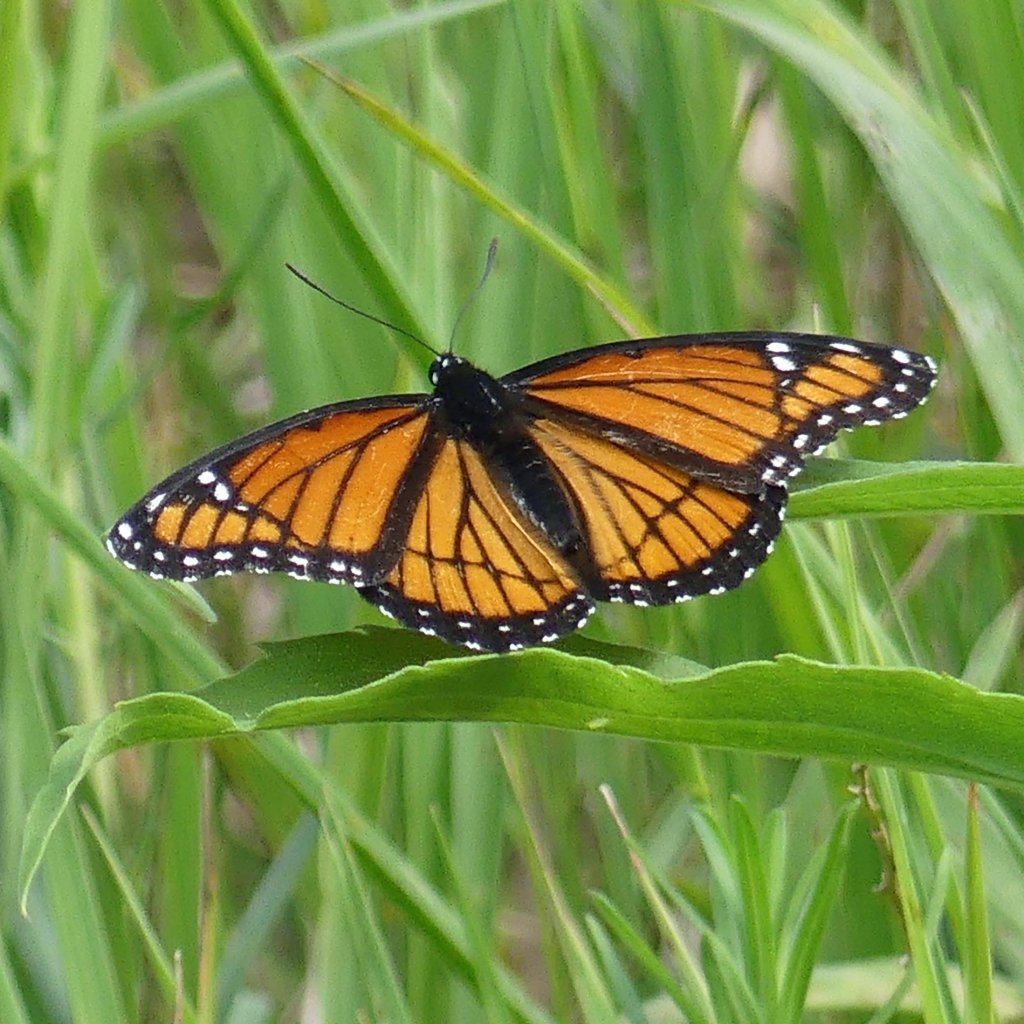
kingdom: Animalia
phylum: Arthropoda
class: Insecta
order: Lepidoptera
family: Nymphalidae
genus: Limenitis
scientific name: Limenitis archippus
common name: Viceroy
